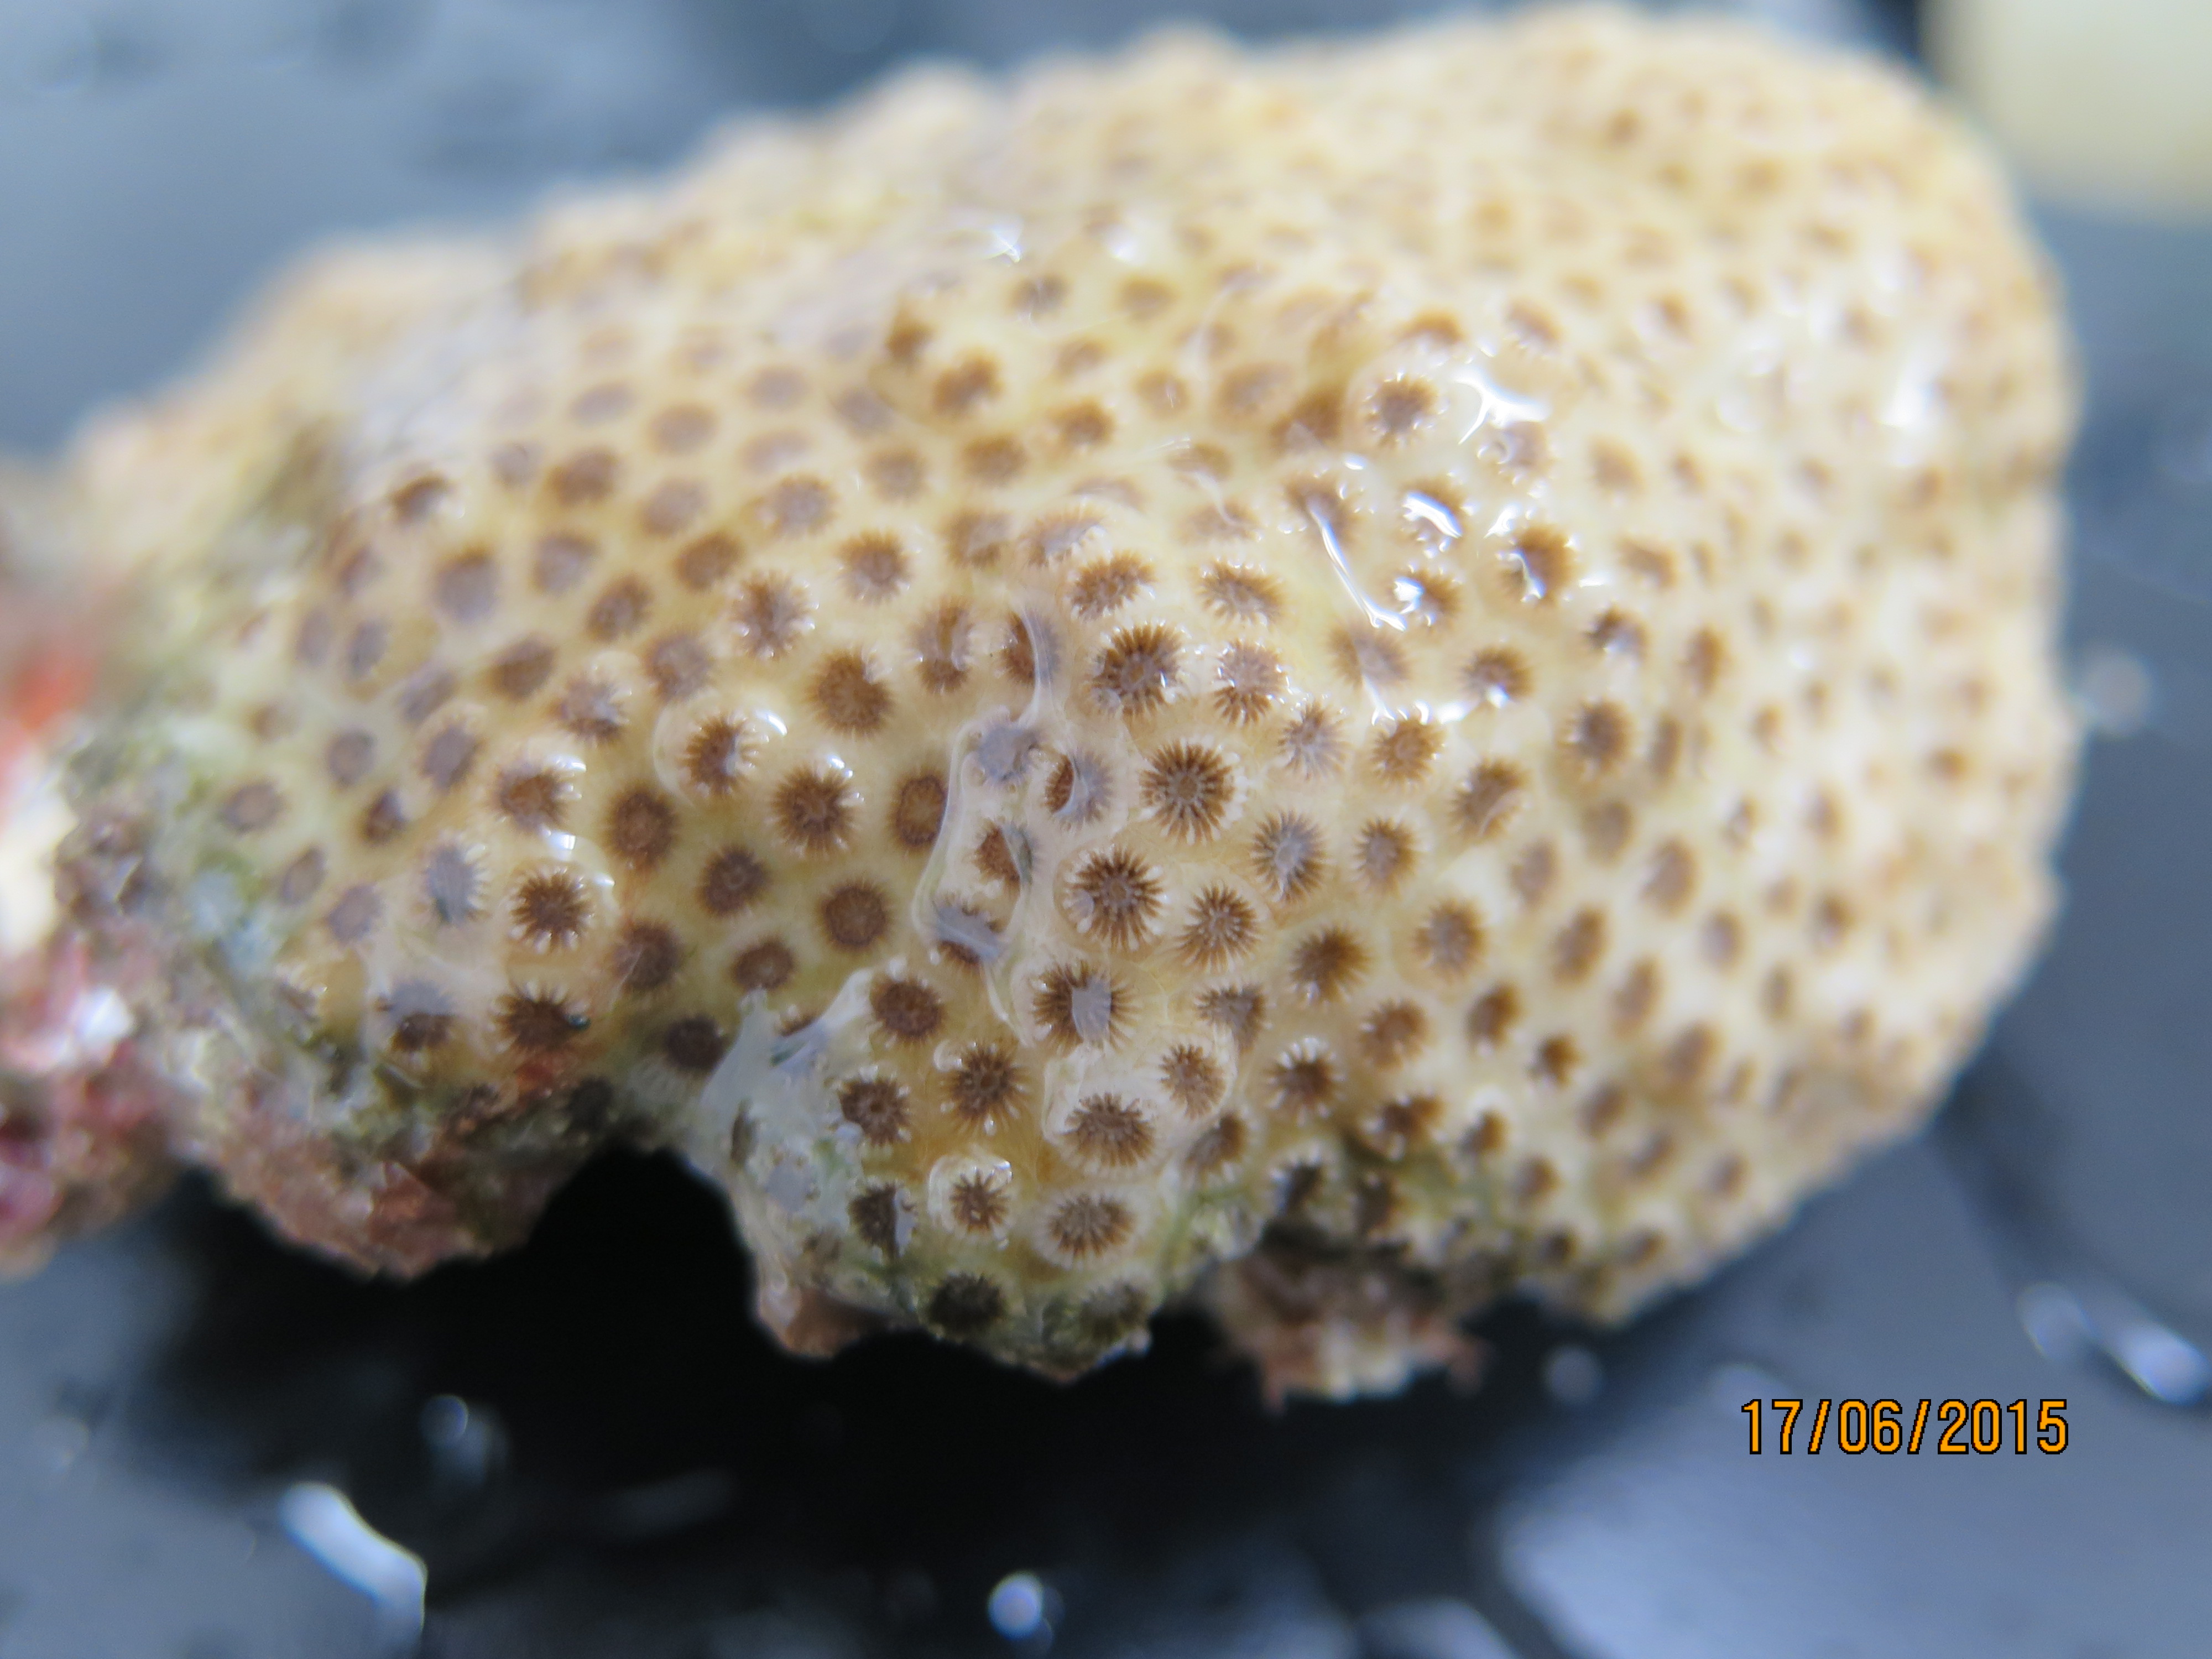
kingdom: Animalia
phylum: Cnidaria
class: Anthozoa
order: Scleractinia
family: Faviidae
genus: Solenastrea
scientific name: Solenastrea bournoni
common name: Smooth star coral
